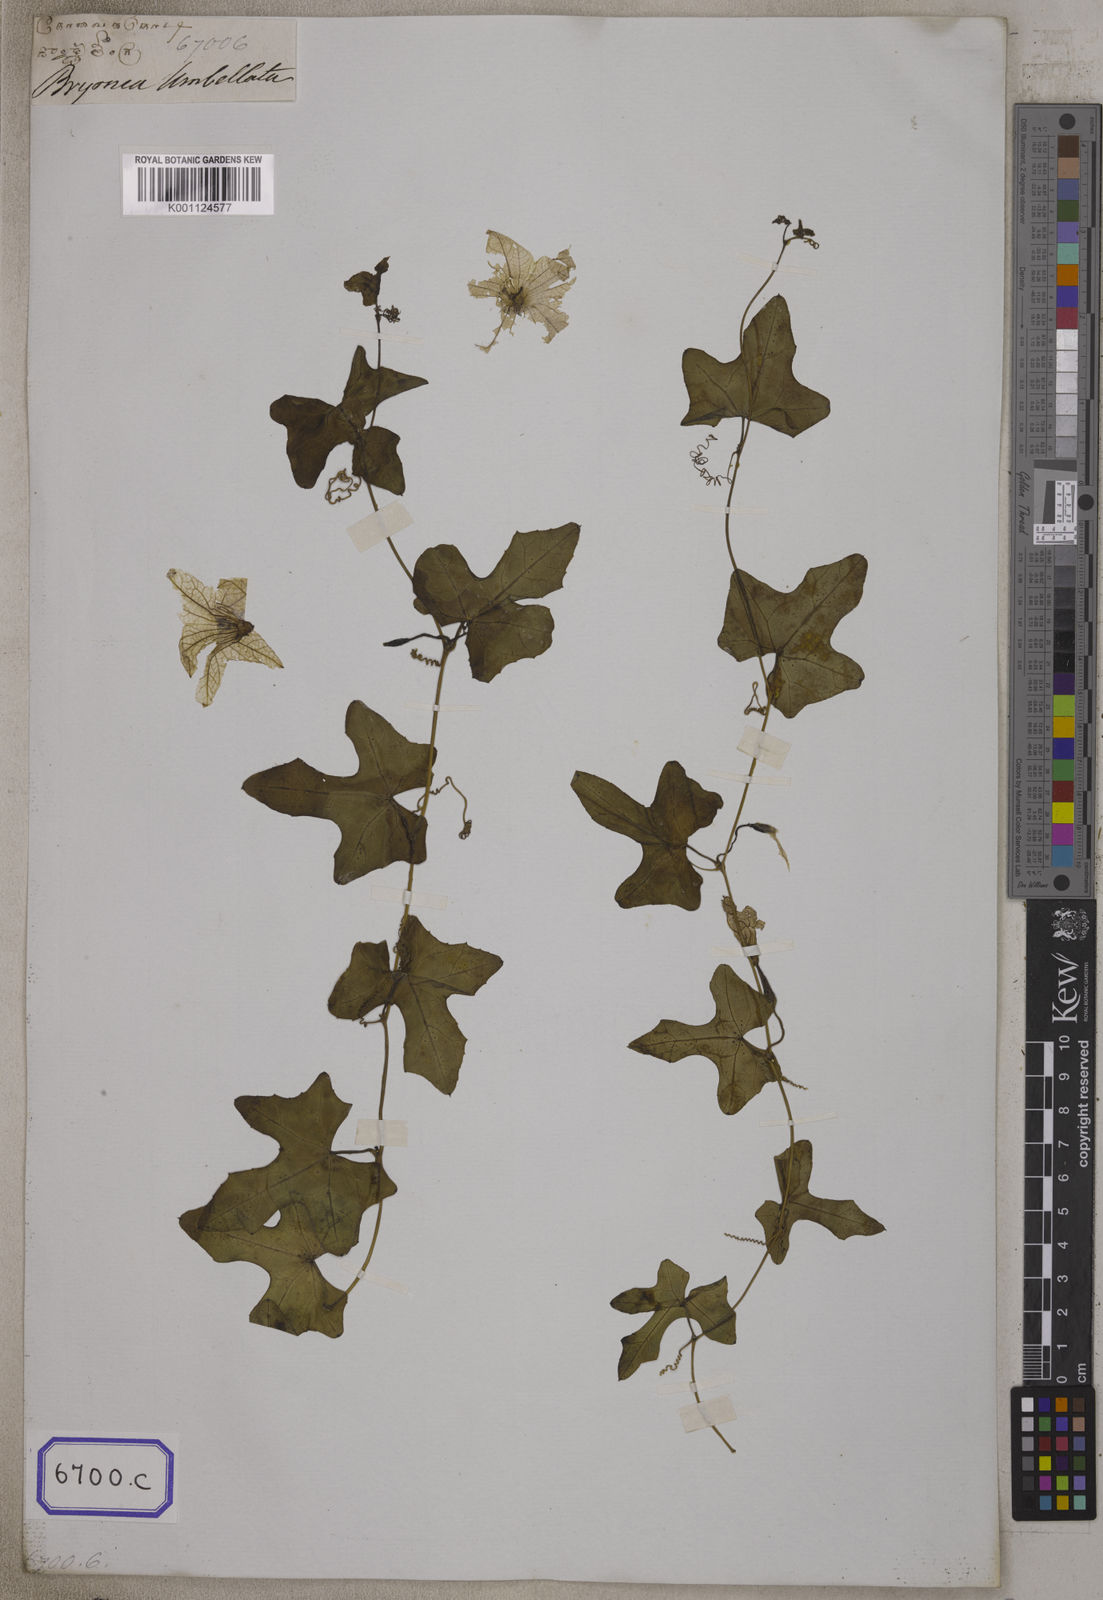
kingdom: Plantae
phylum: Tracheophyta
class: Magnoliopsida
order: Cucurbitales
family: Cucurbitaceae
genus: Bryonia
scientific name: Bryonia
